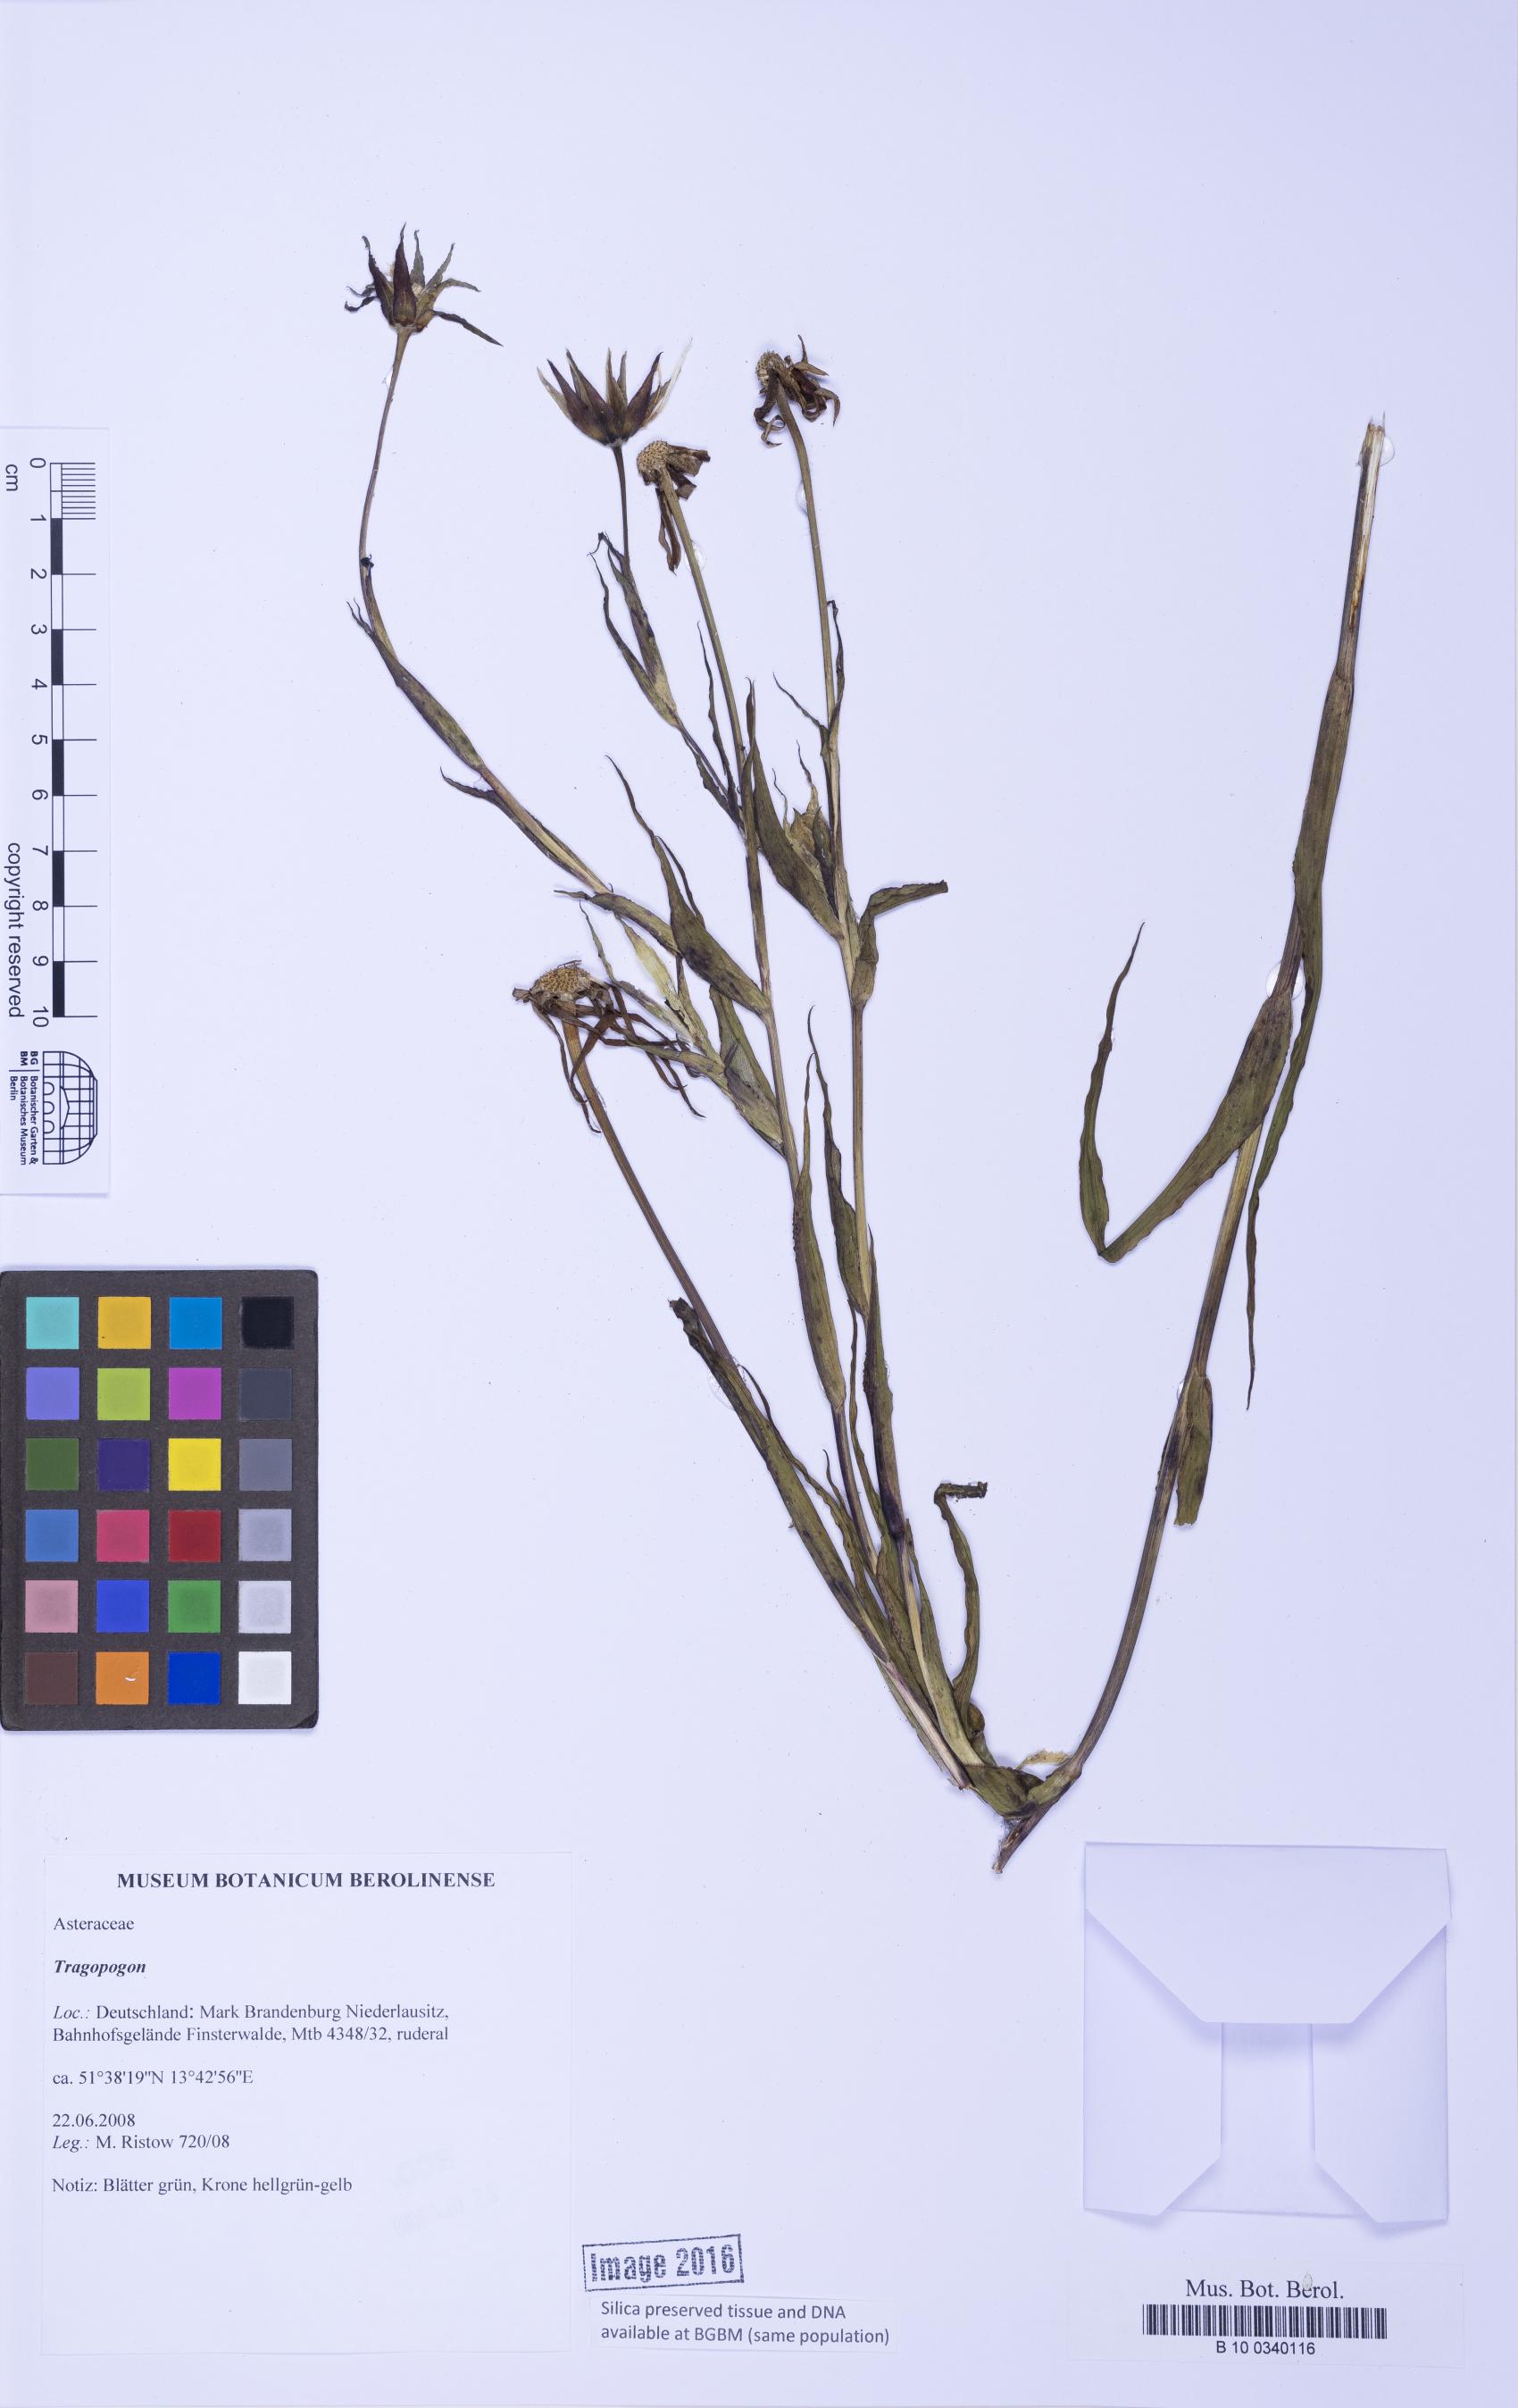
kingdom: Plantae
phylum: Tracheophyta
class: Magnoliopsida
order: Asterales
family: Asteraceae
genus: Tragopogon
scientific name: Tragopogon
